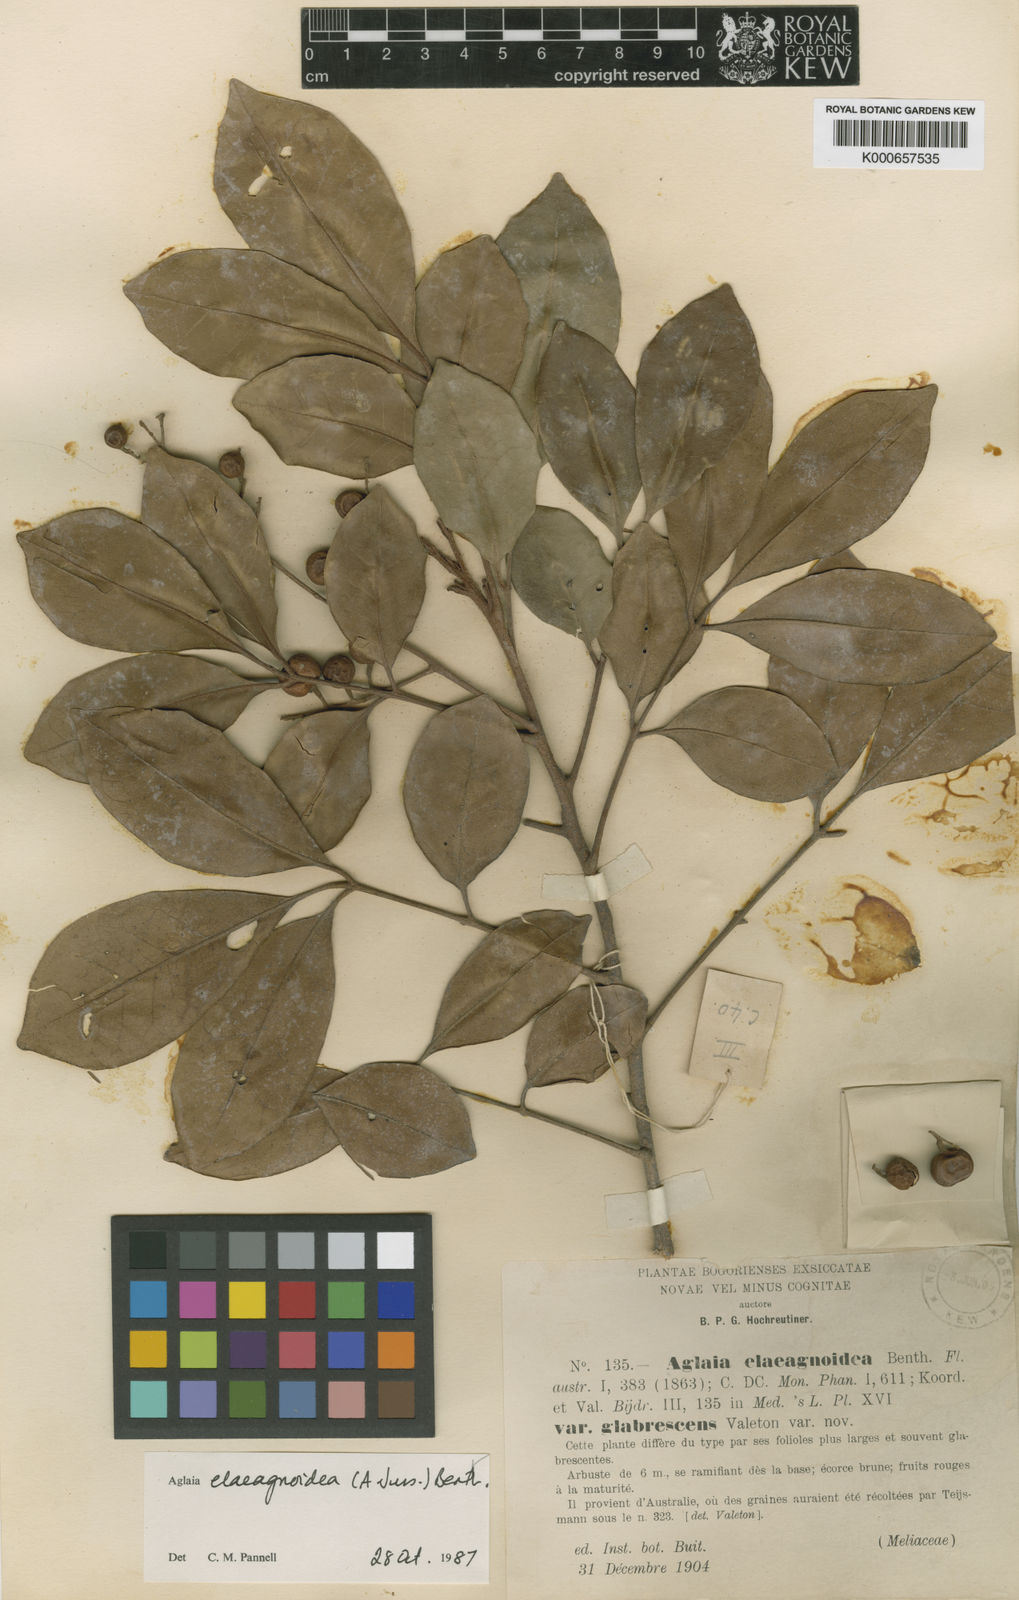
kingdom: Plantae
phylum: Tracheophyta
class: Magnoliopsida
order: Sapindales
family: Meliaceae
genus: Aglaia
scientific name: Aglaia elaeagnoidea
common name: Droopyleaf
